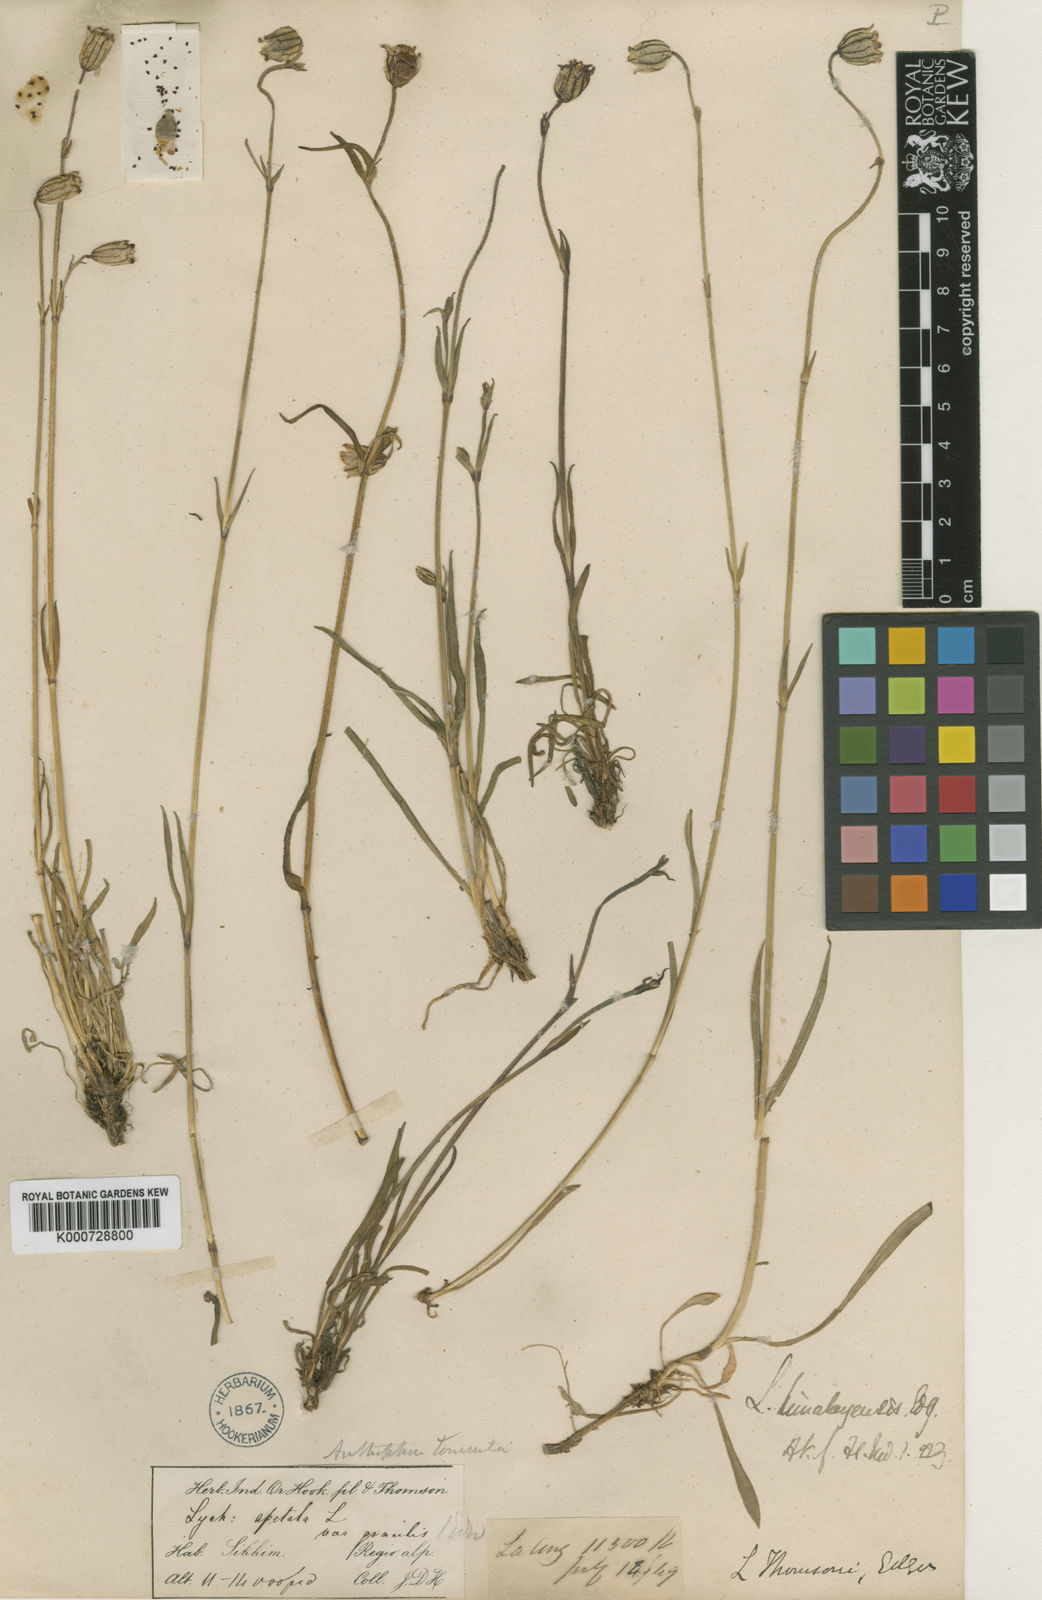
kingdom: Plantae
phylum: Tracheophyta
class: Magnoliopsida
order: Caryophyllales
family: Caryophyllaceae
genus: Silene
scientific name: Silene gonosperma
